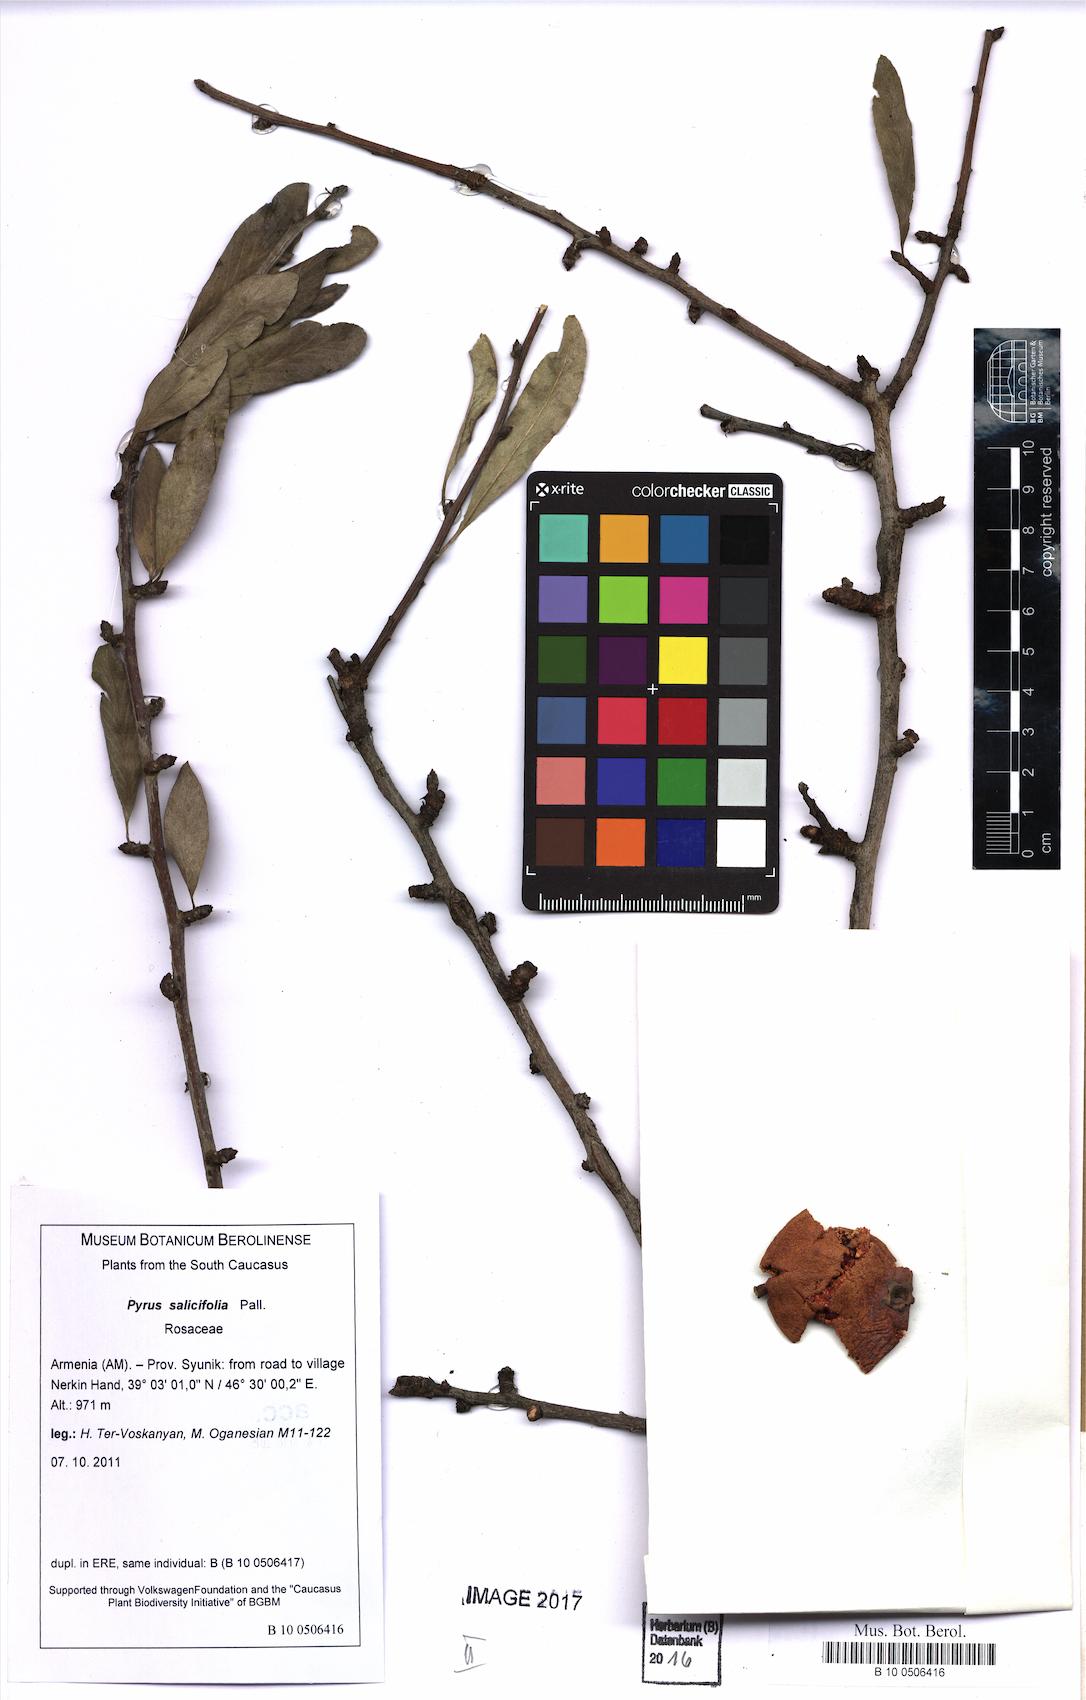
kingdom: Plantae
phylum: Tracheophyta
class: Magnoliopsida
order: Rosales
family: Rosaceae
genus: Pyrus
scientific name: Pyrus salicifolia
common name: Willow-leaved pear
